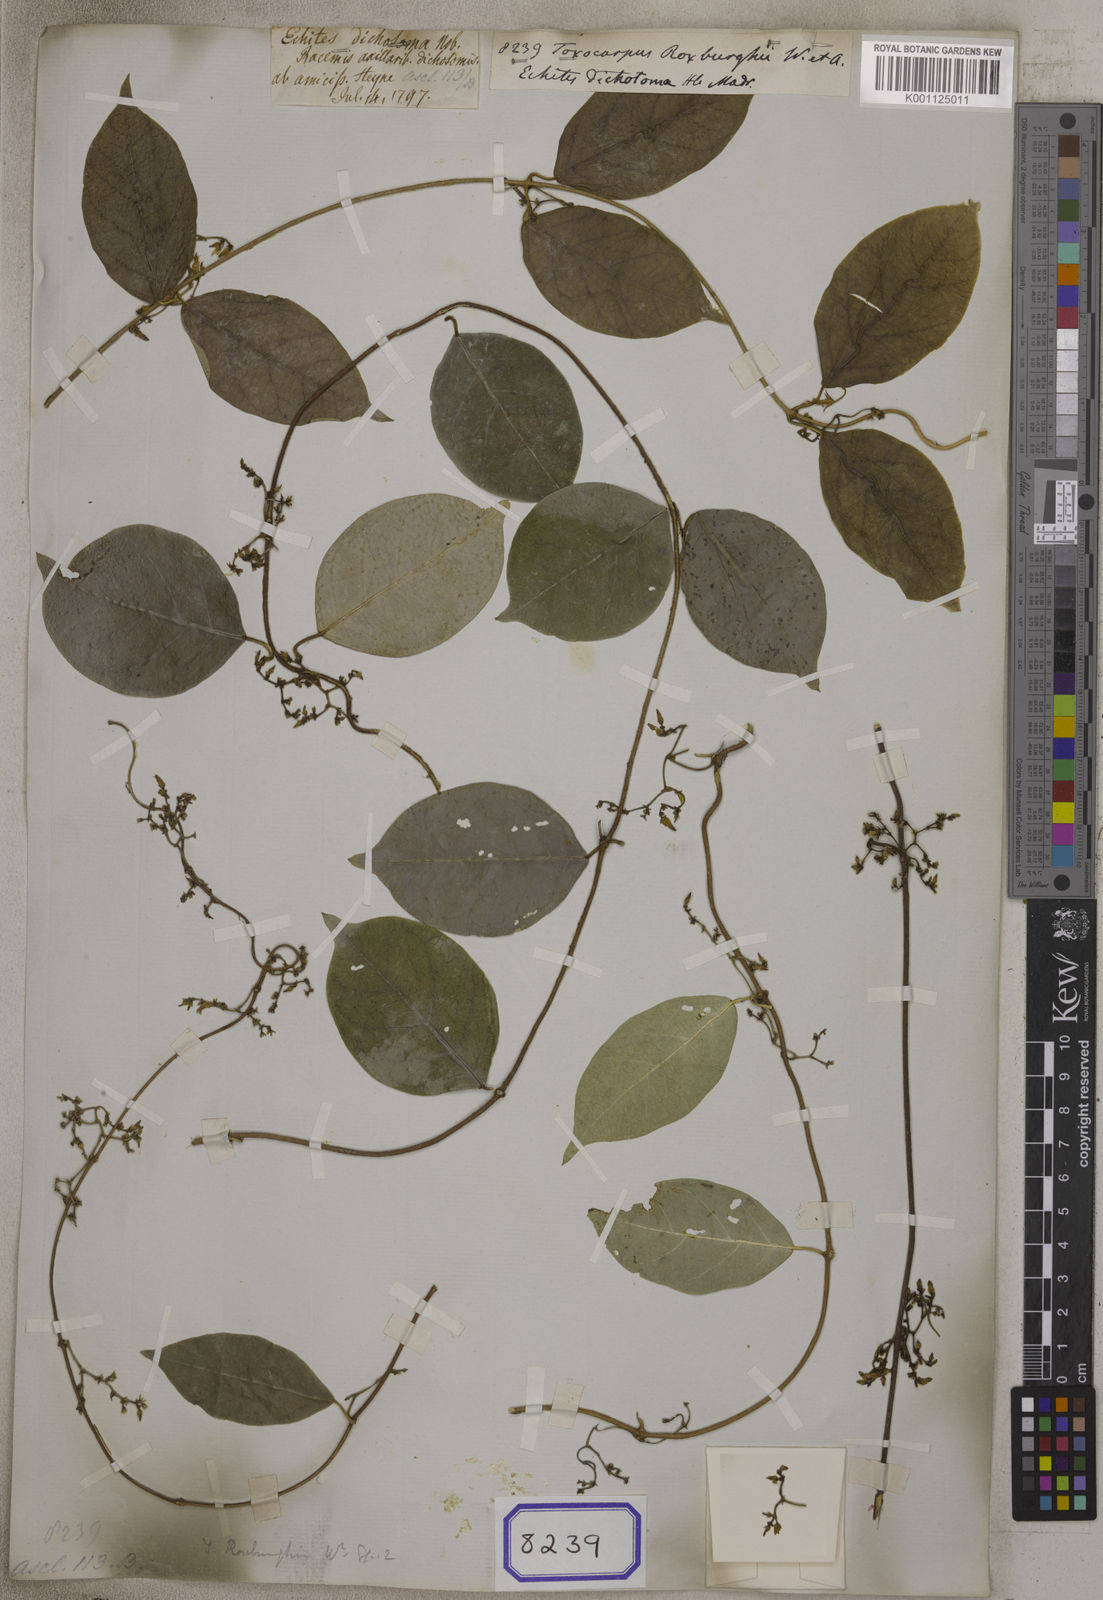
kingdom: Plantae
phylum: Tracheophyta
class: Magnoliopsida
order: Gentianales
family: Apocynaceae
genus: Toxocarpus
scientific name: Toxocarpus longistigma
